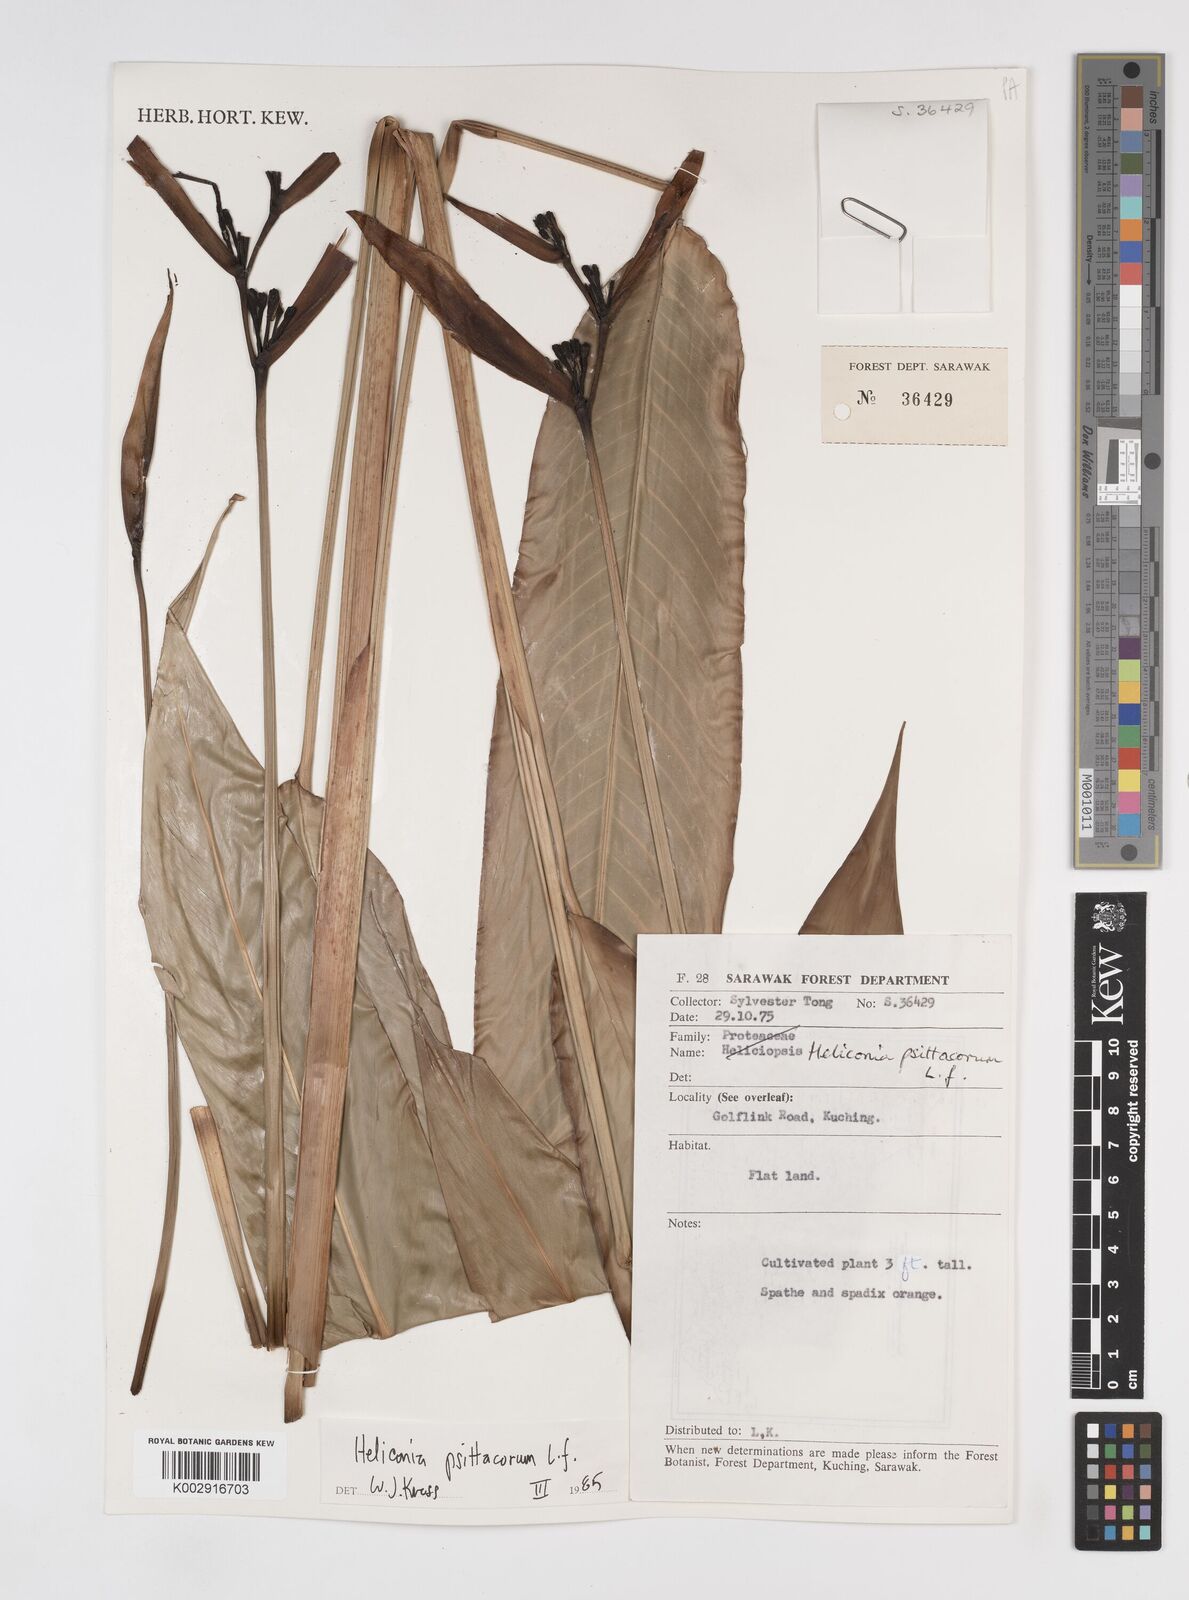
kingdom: Plantae
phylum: Tracheophyta
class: Liliopsida
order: Zingiberales
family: Heliconiaceae
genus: Heliconia
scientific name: Heliconia psittacorum
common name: Parrot's-flower
